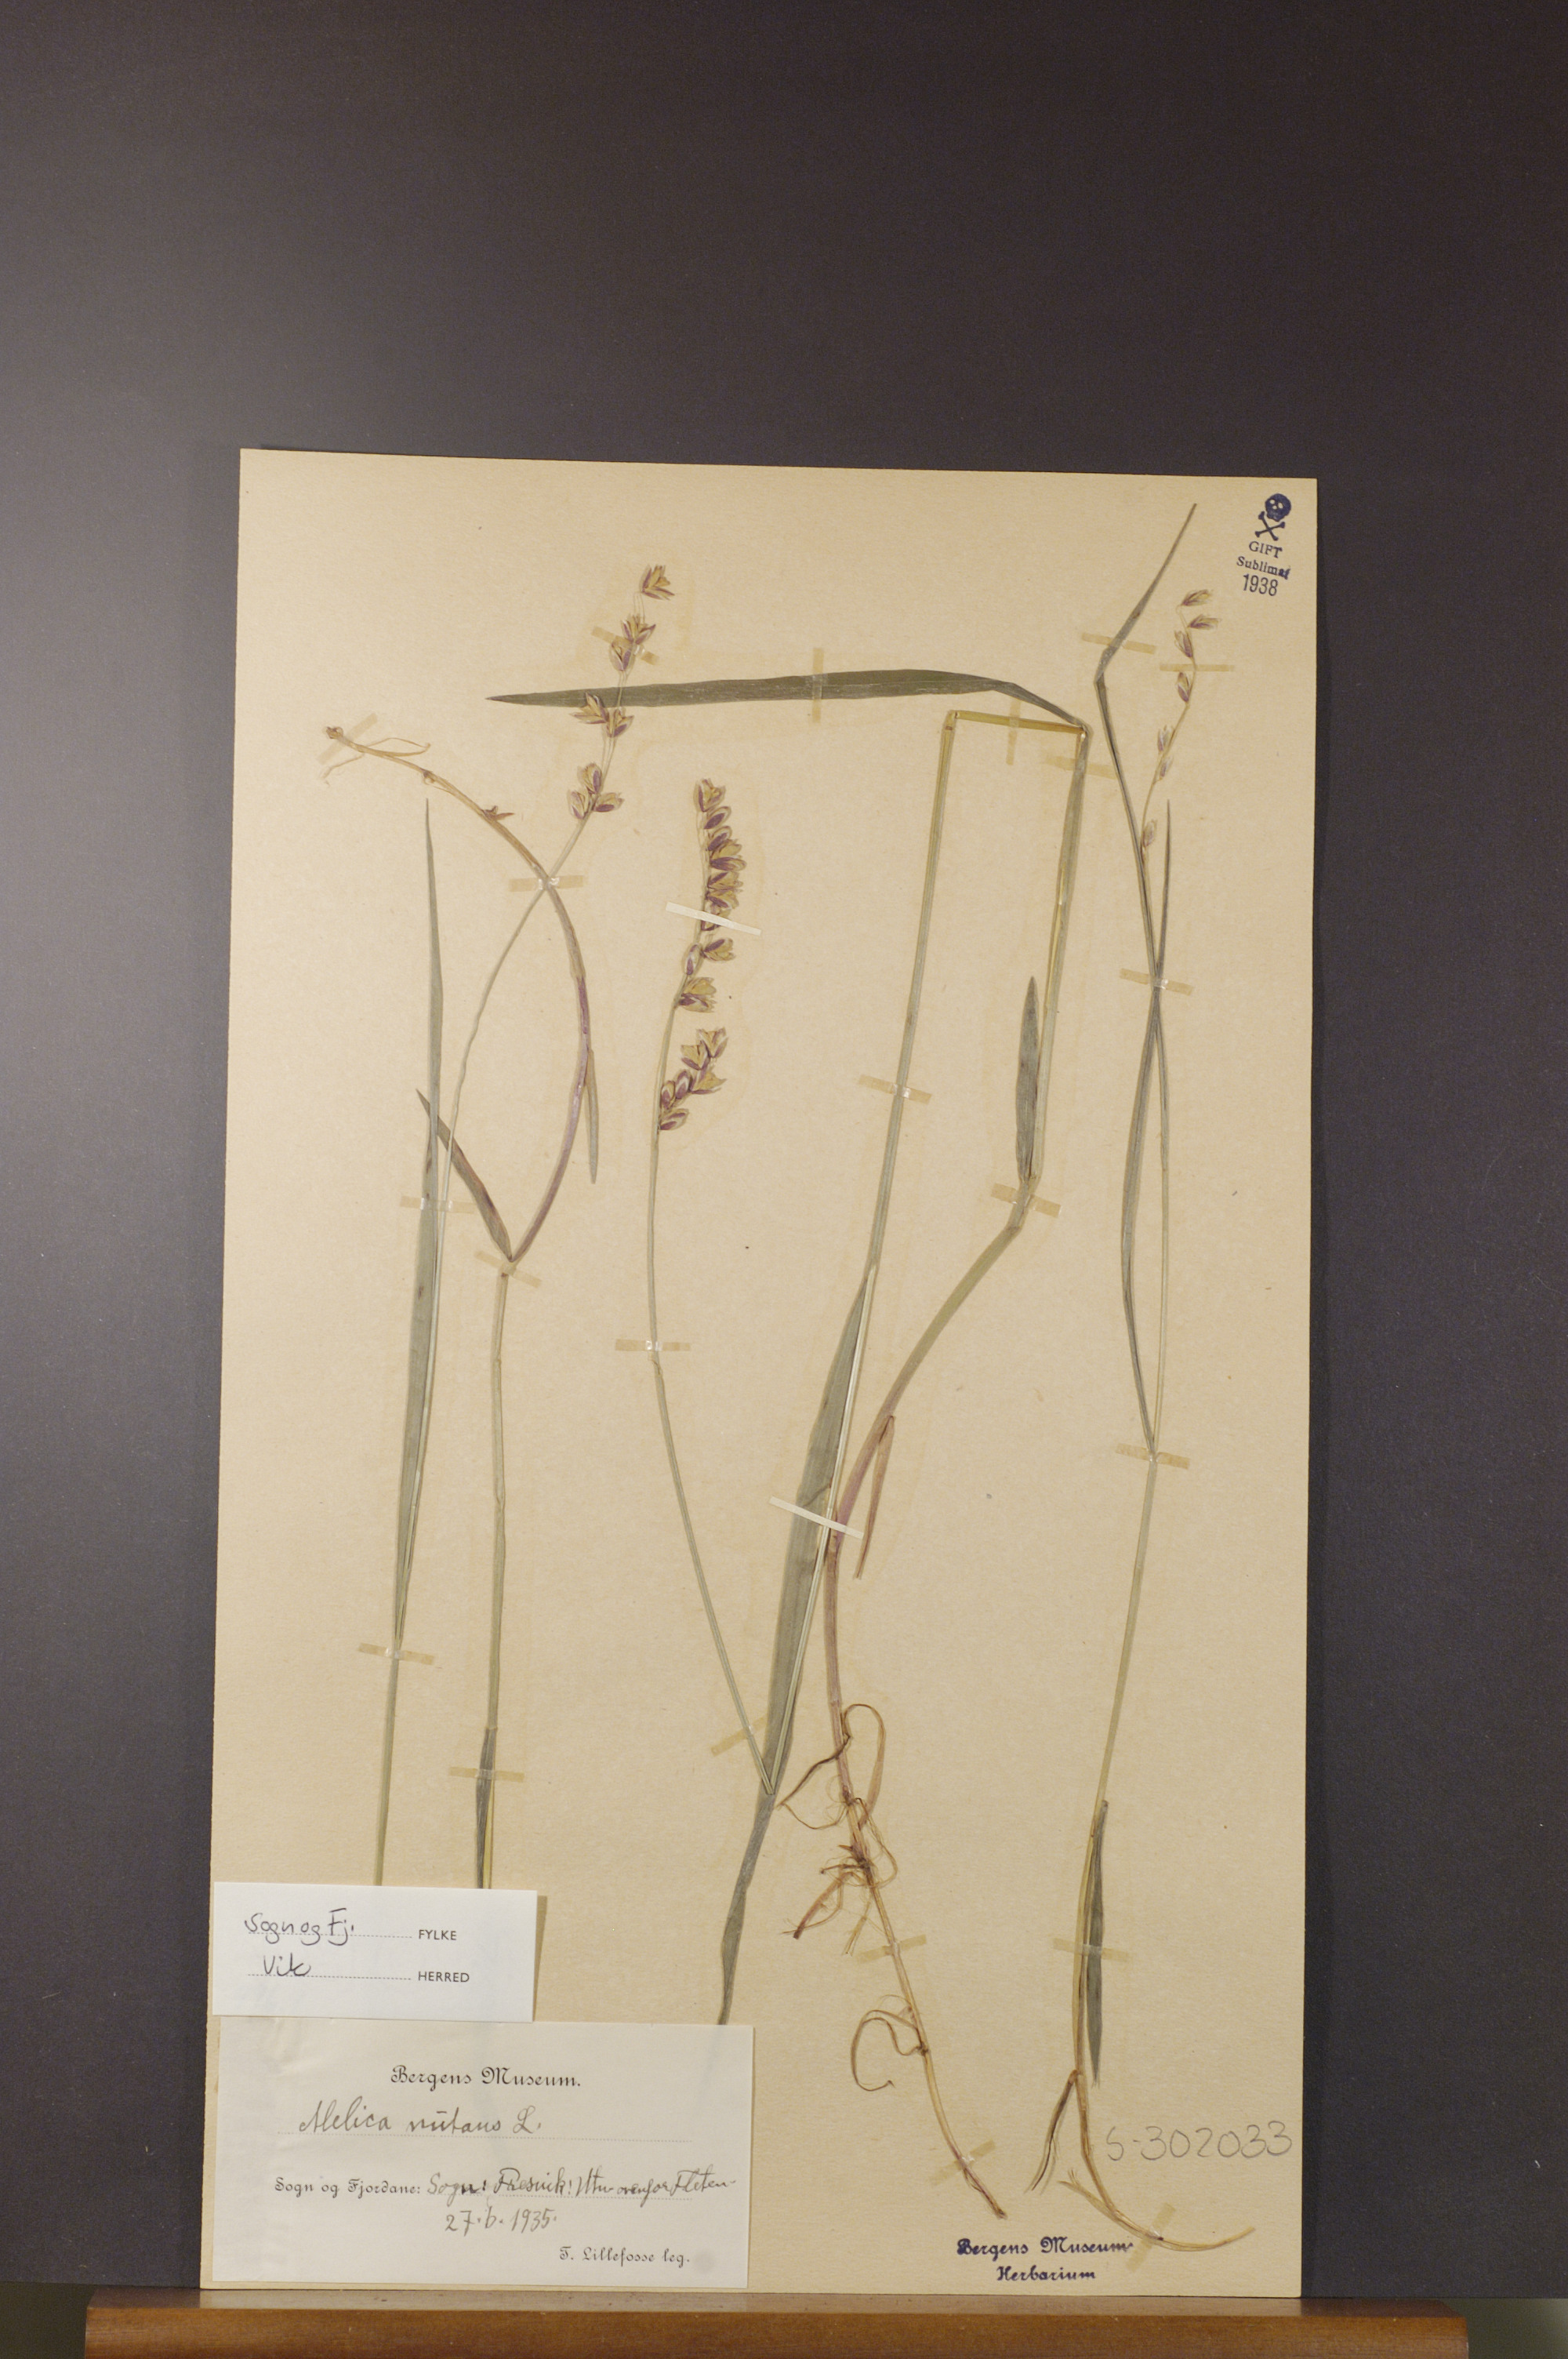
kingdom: Plantae
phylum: Tracheophyta
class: Liliopsida
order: Poales
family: Poaceae
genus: Melica
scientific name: Melica nutans
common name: Mountain melick
